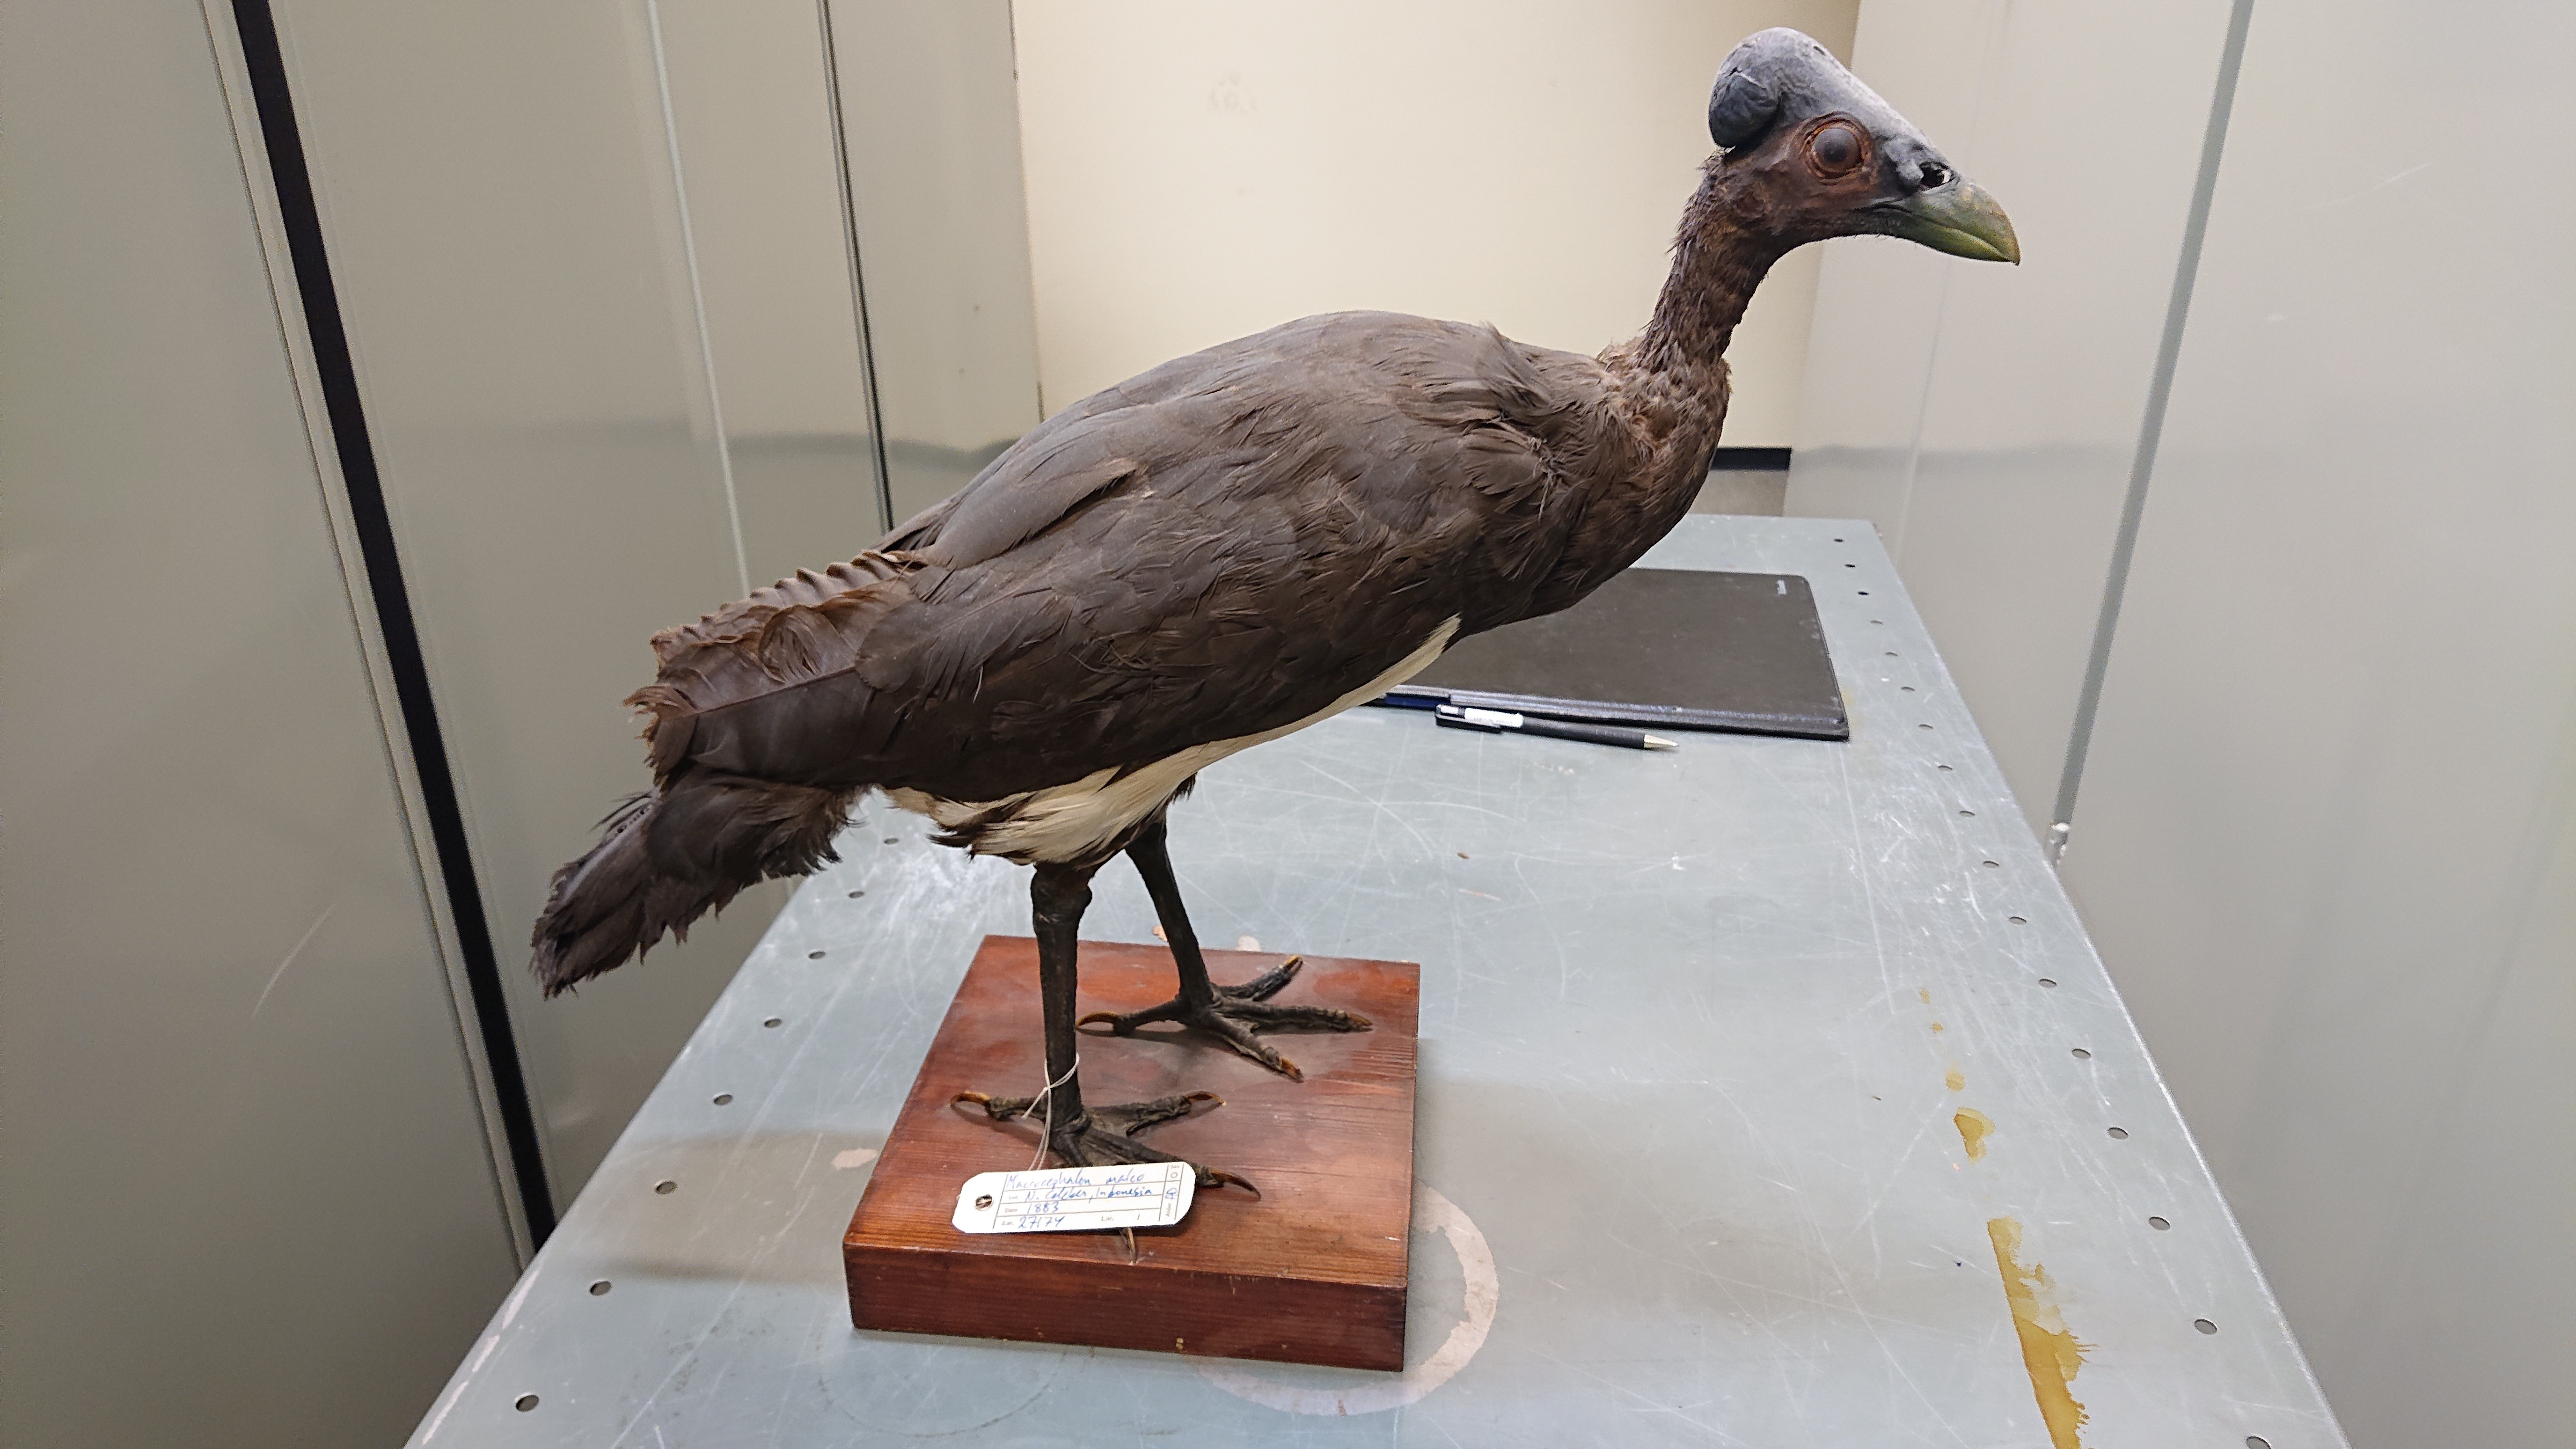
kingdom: Animalia
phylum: Chordata
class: Aves
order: Galliformes
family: Megapodiidae
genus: Macrocephalon
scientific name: Macrocephalon maleo
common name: Maleo
